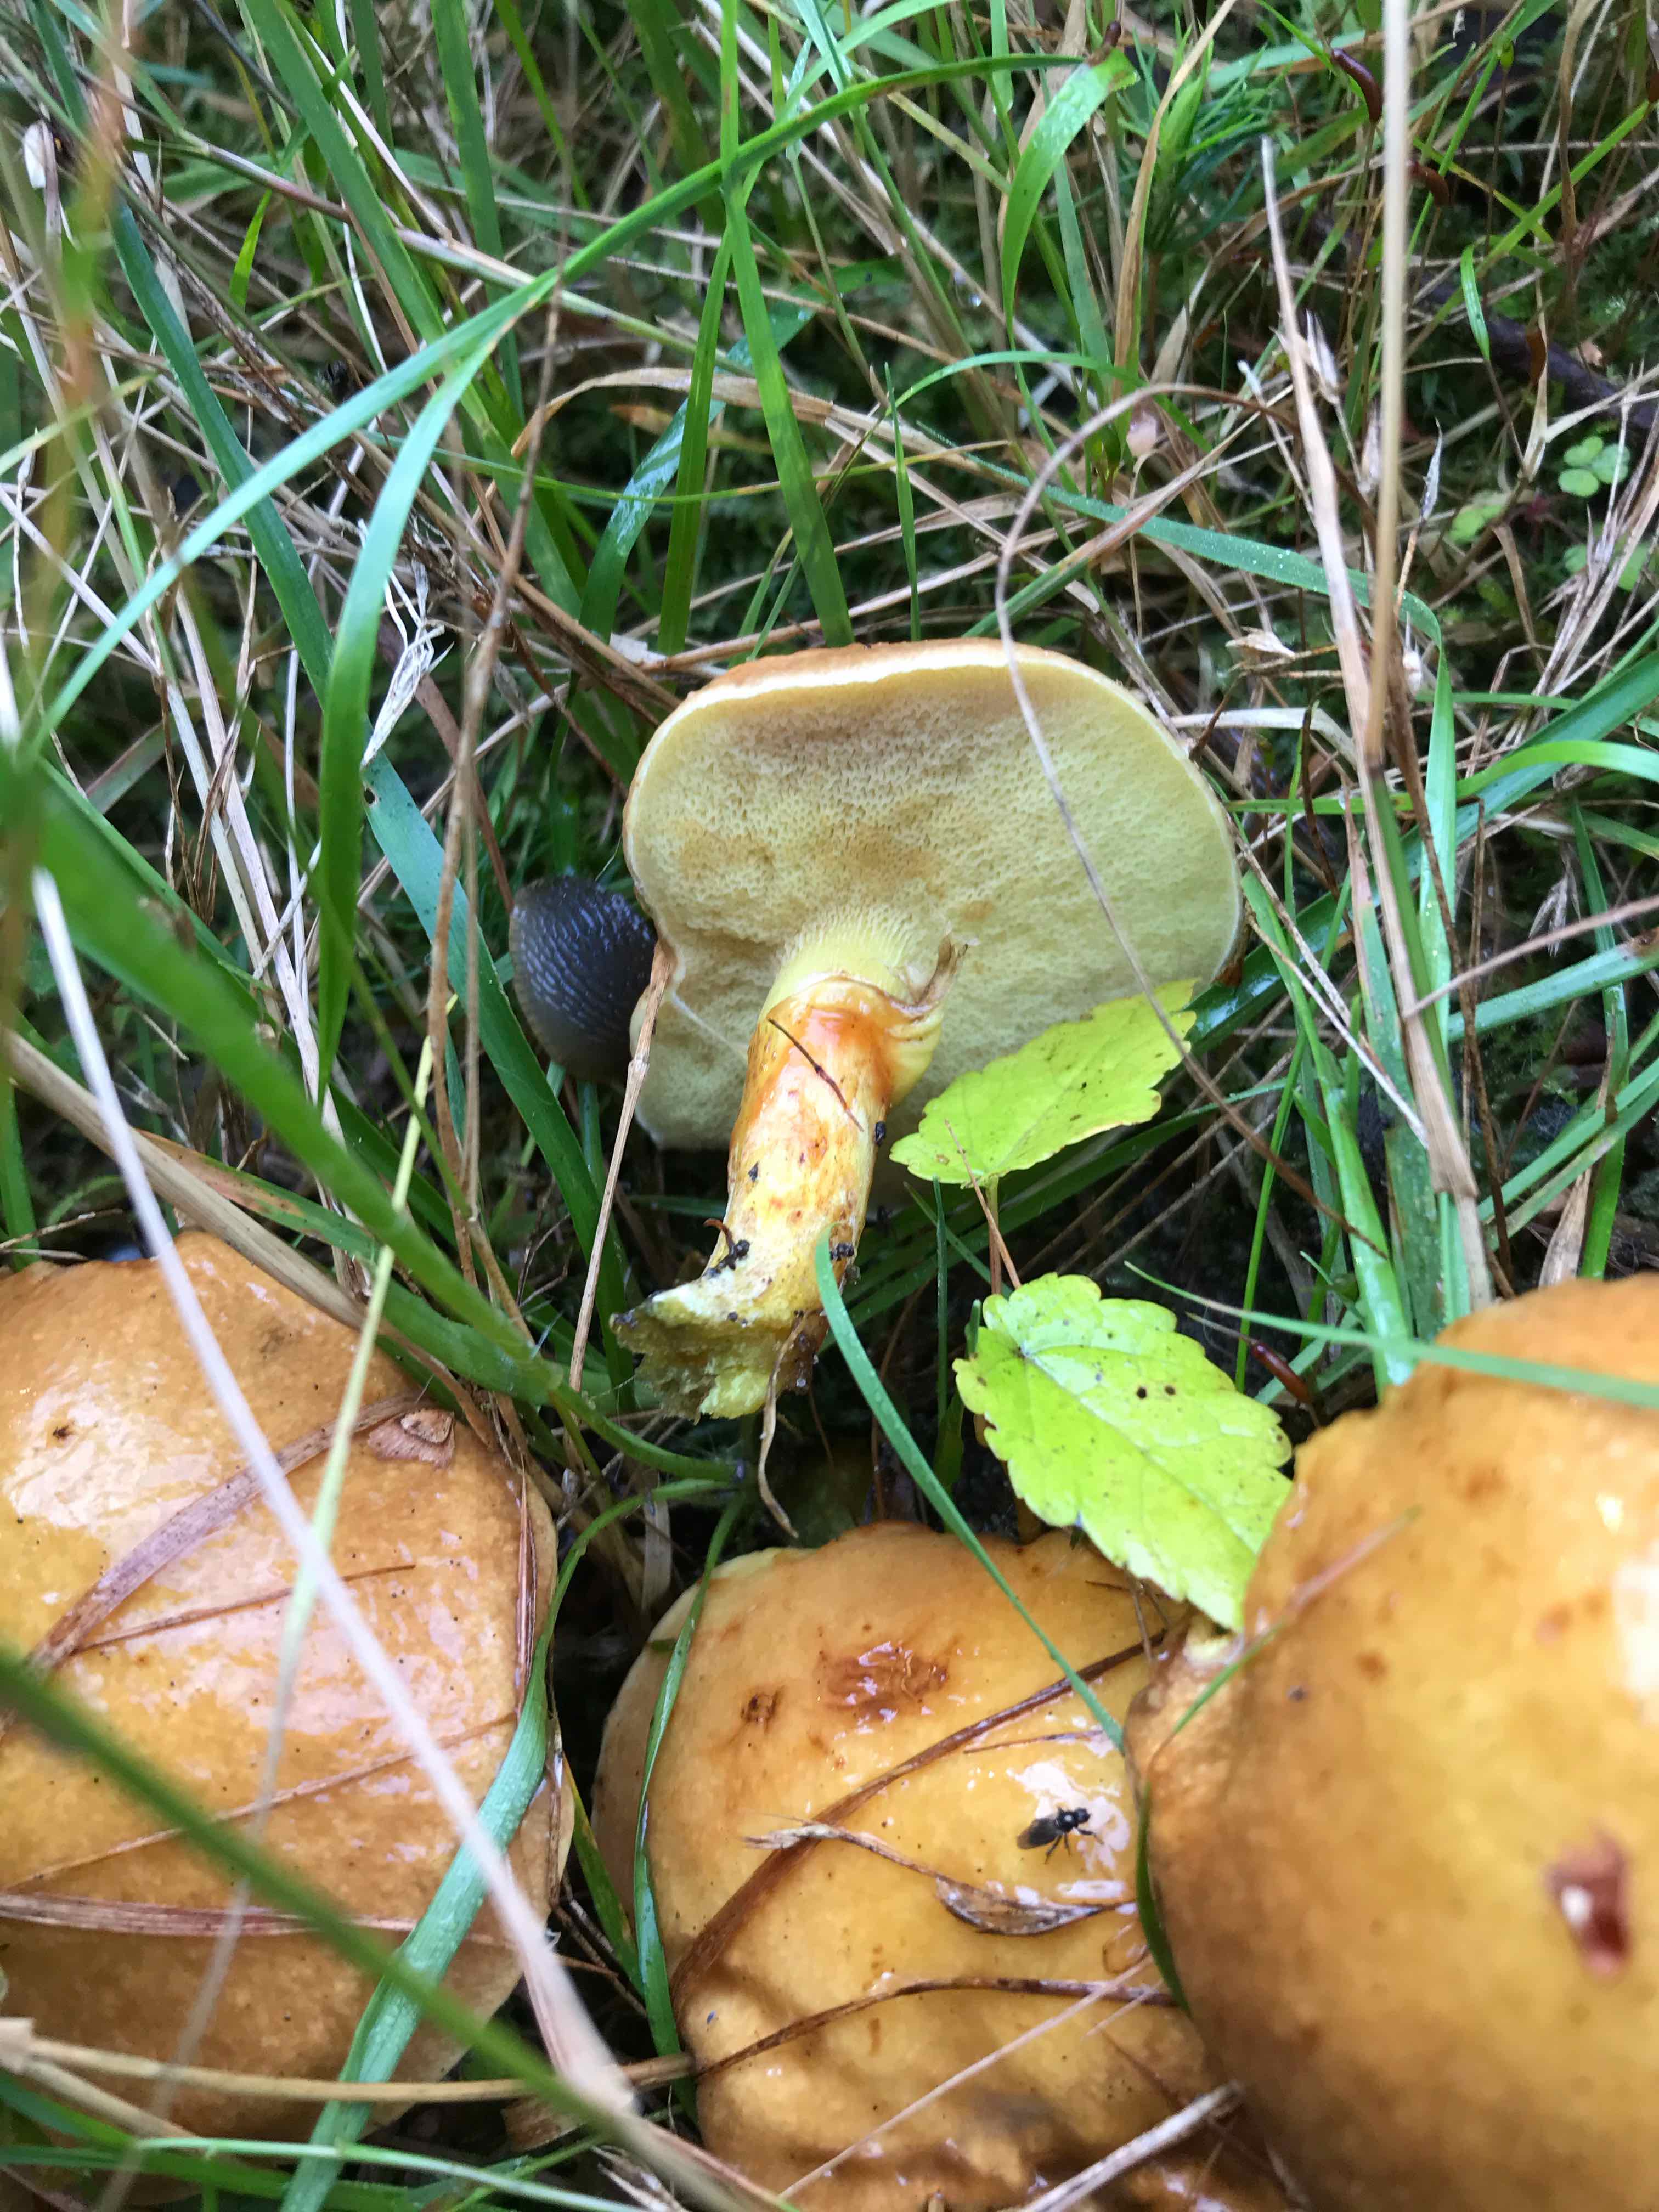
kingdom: Fungi
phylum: Basidiomycota
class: Agaricomycetes
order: Boletales
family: Suillaceae
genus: Suillus
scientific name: Suillus grevillei
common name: lærke-slimrørhat
